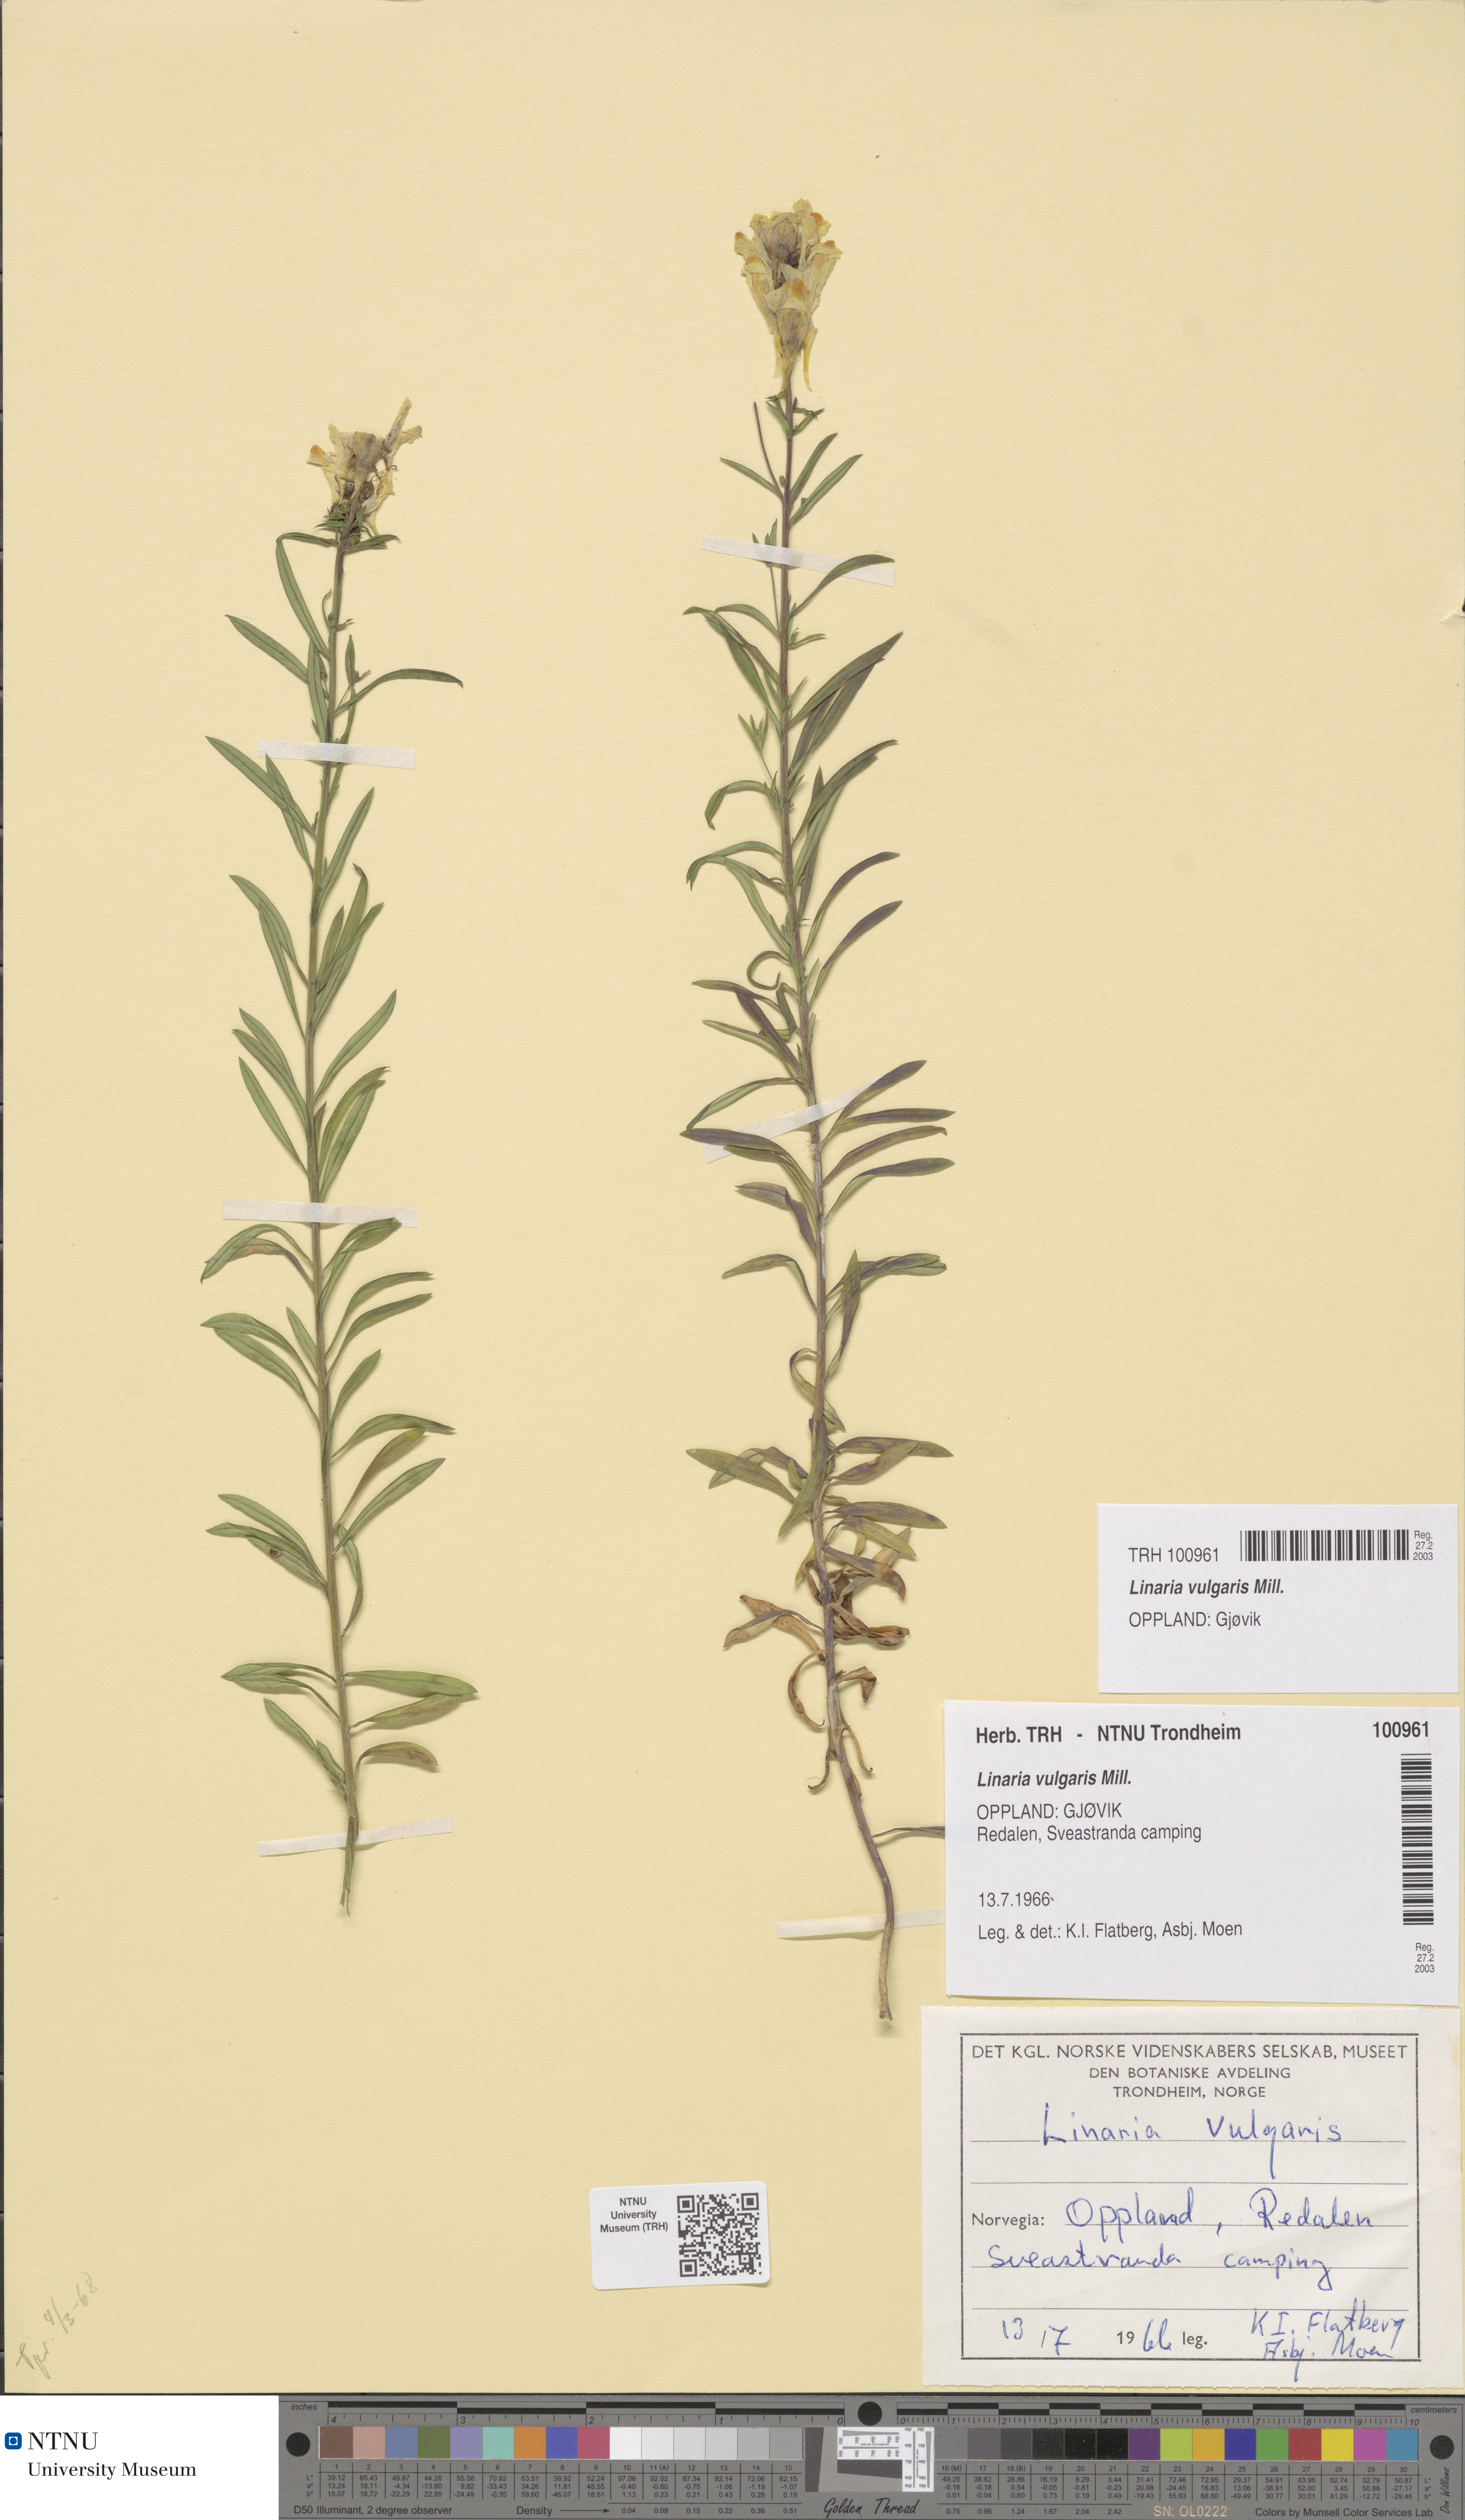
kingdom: Plantae
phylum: Tracheophyta
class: Magnoliopsida
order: Lamiales
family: Plantaginaceae
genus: Linaria
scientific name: Linaria vulgaris
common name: Butter and eggs
